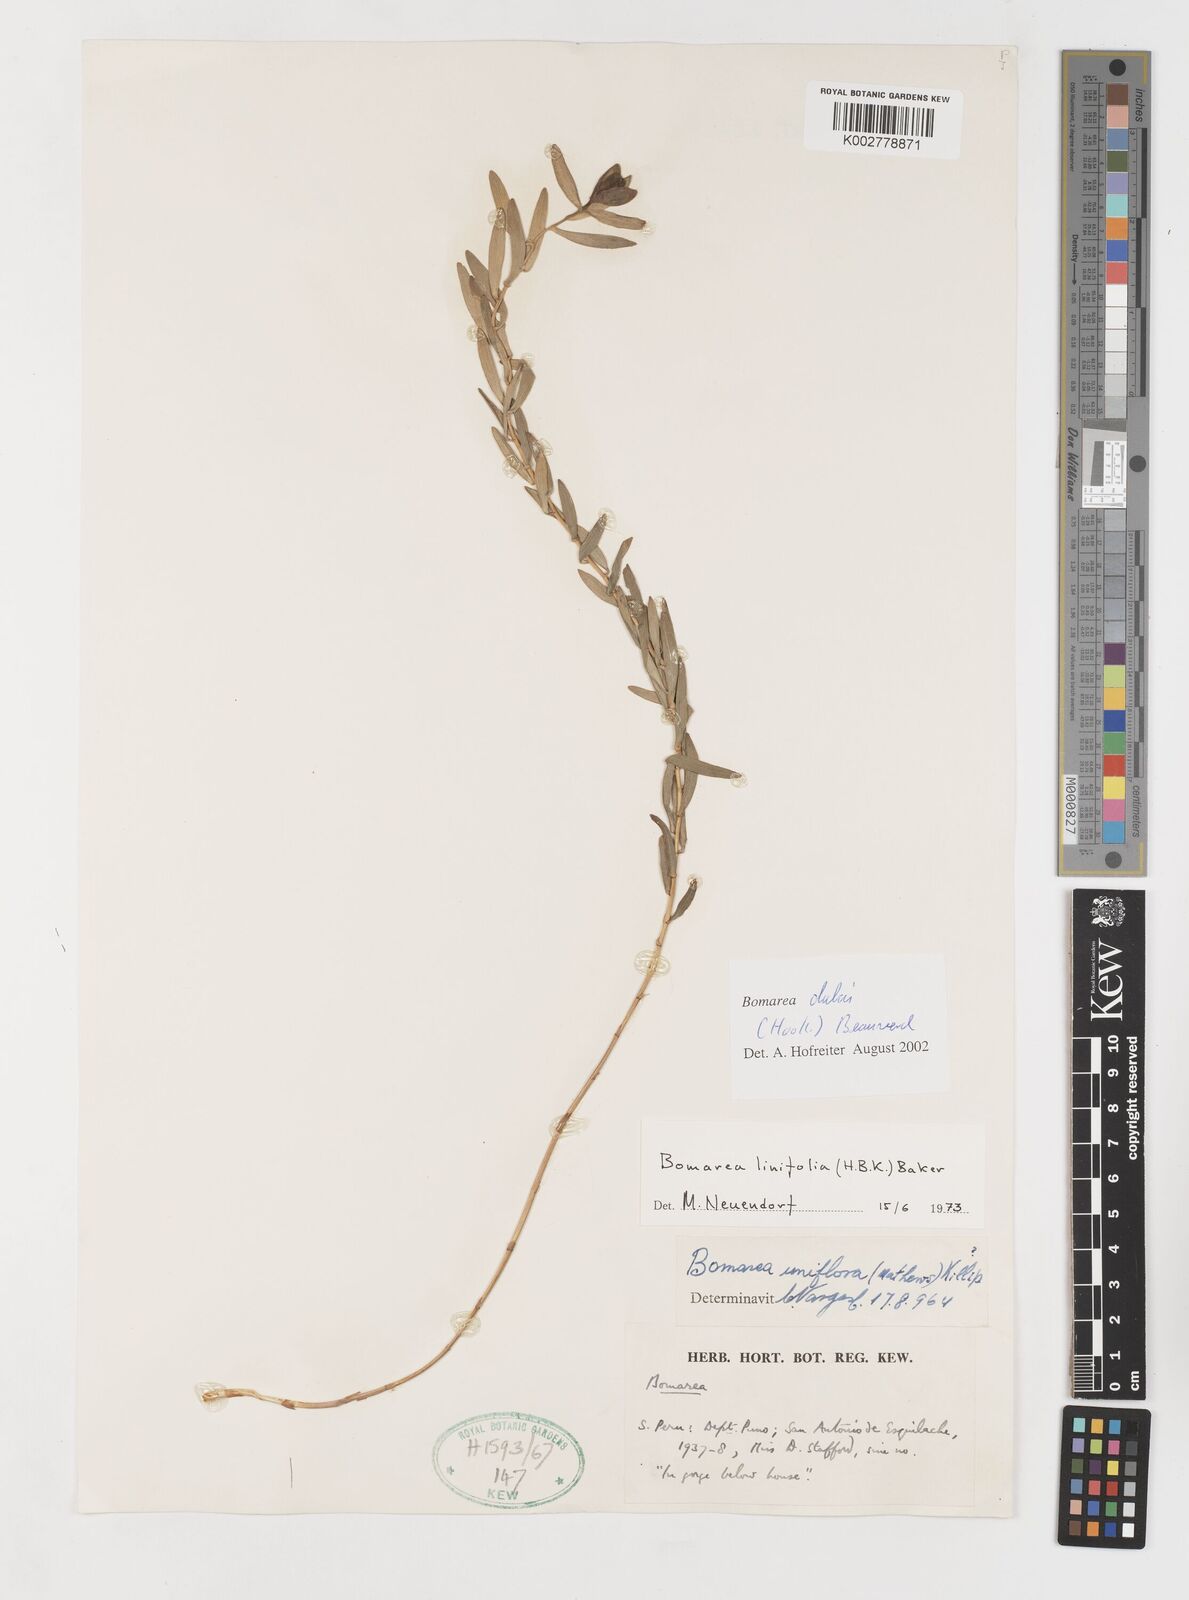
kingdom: Plantae
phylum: Tracheophyta
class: Liliopsida
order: Liliales
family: Alstroemeriaceae
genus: Bomarea
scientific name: Bomarea dulcis
